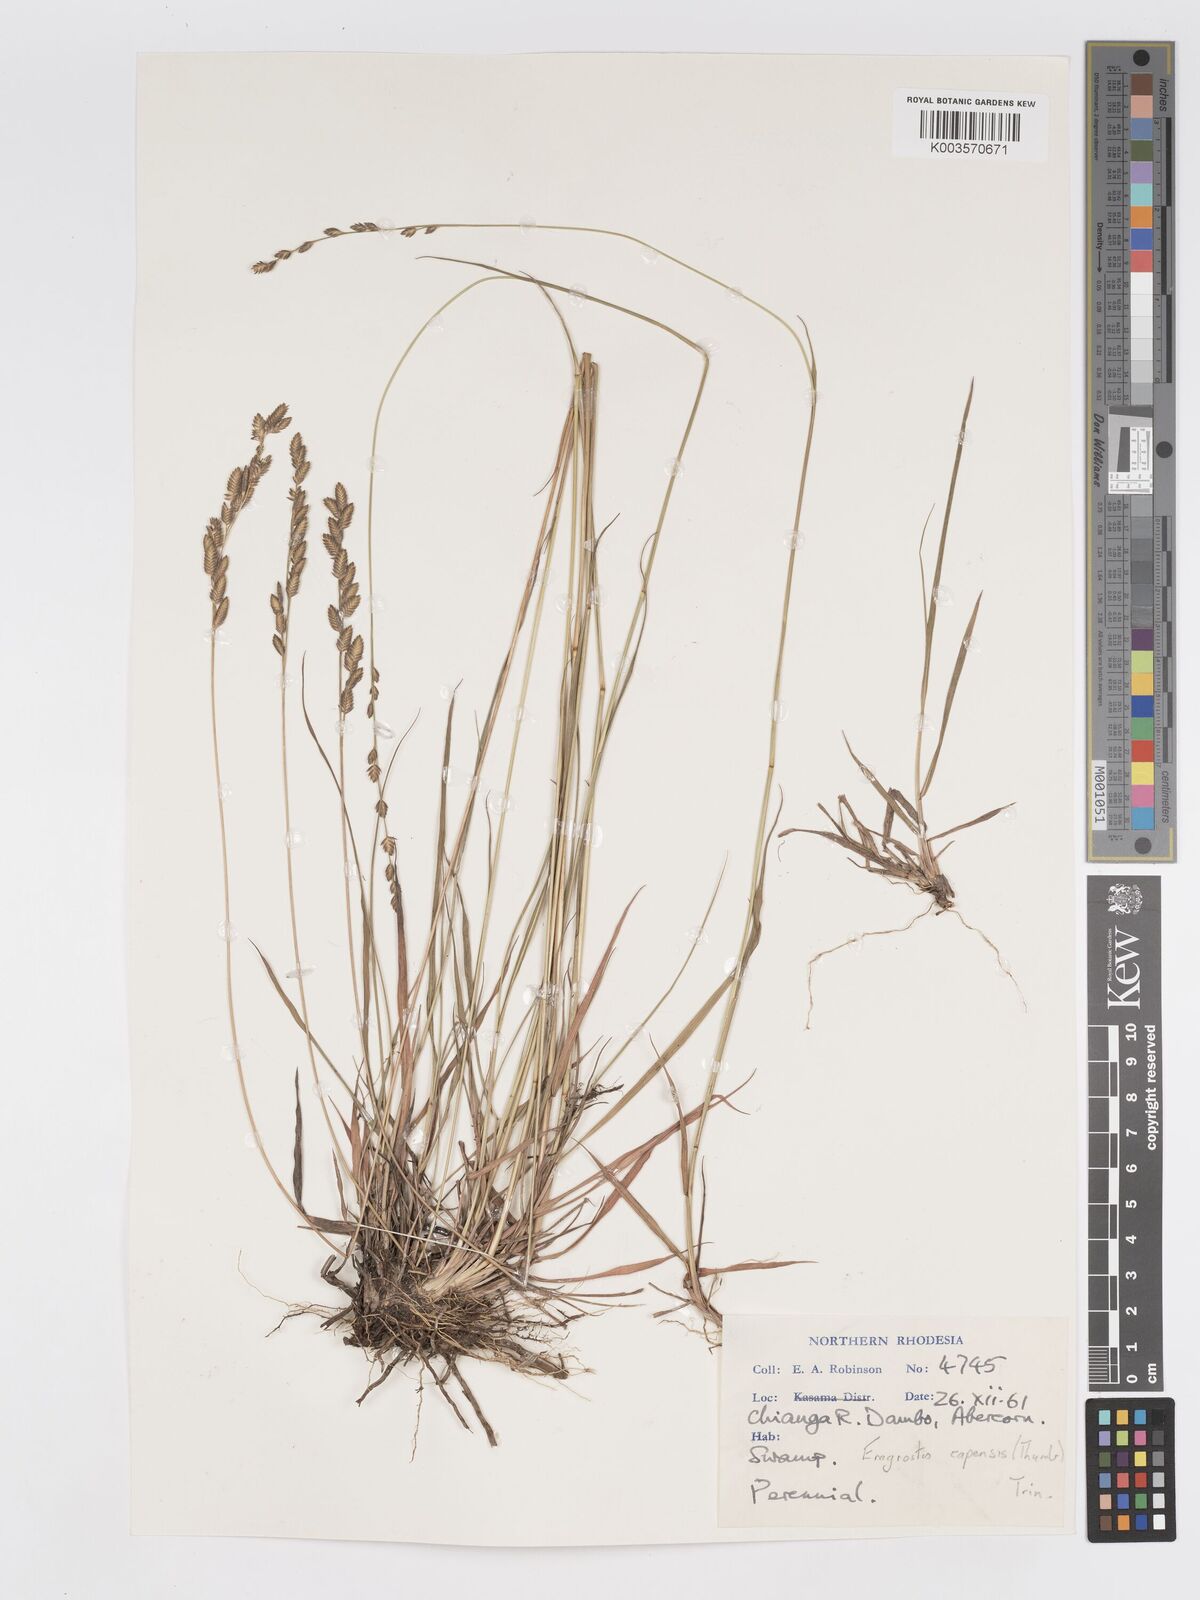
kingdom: Plantae
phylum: Tracheophyta
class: Liliopsida
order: Poales
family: Poaceae
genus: Eragrostis
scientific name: Eragrostis capensis
